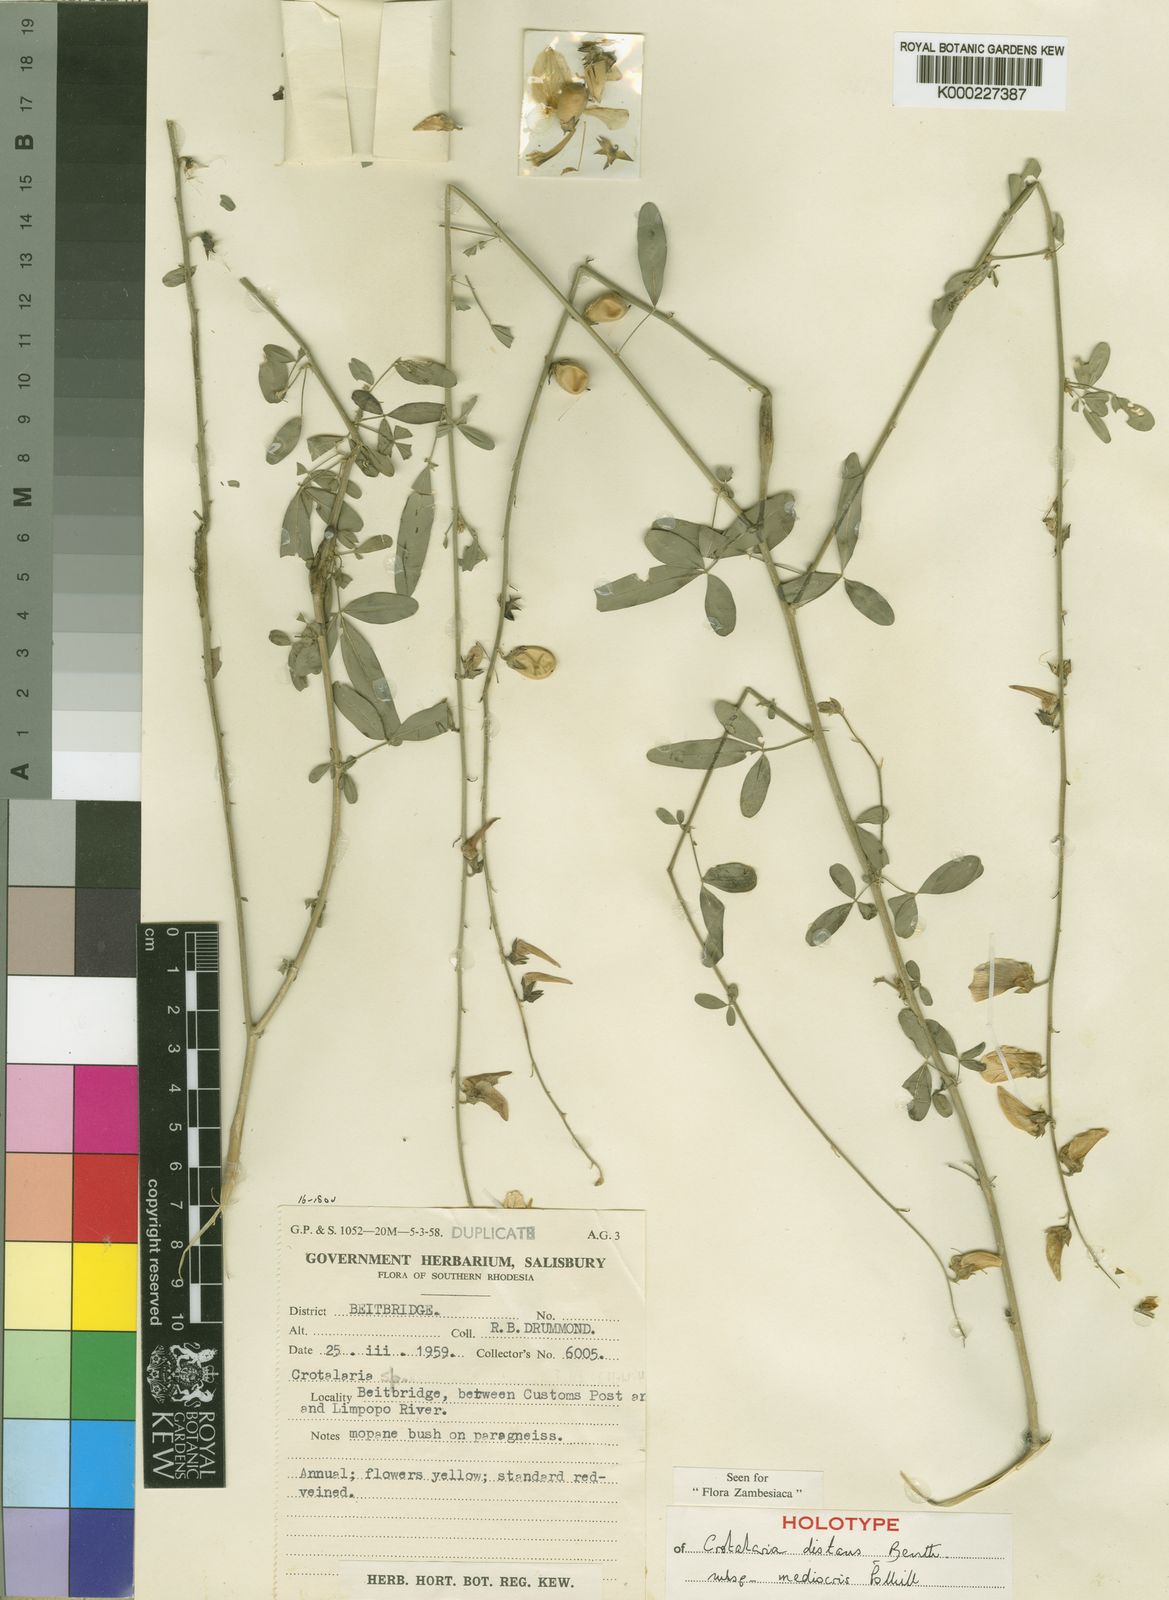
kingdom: Plantae
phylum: Tracheophyta
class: Magnoliopsida
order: Fabales
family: Fabaceae
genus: Crotalaria
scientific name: Crotalaria distans
